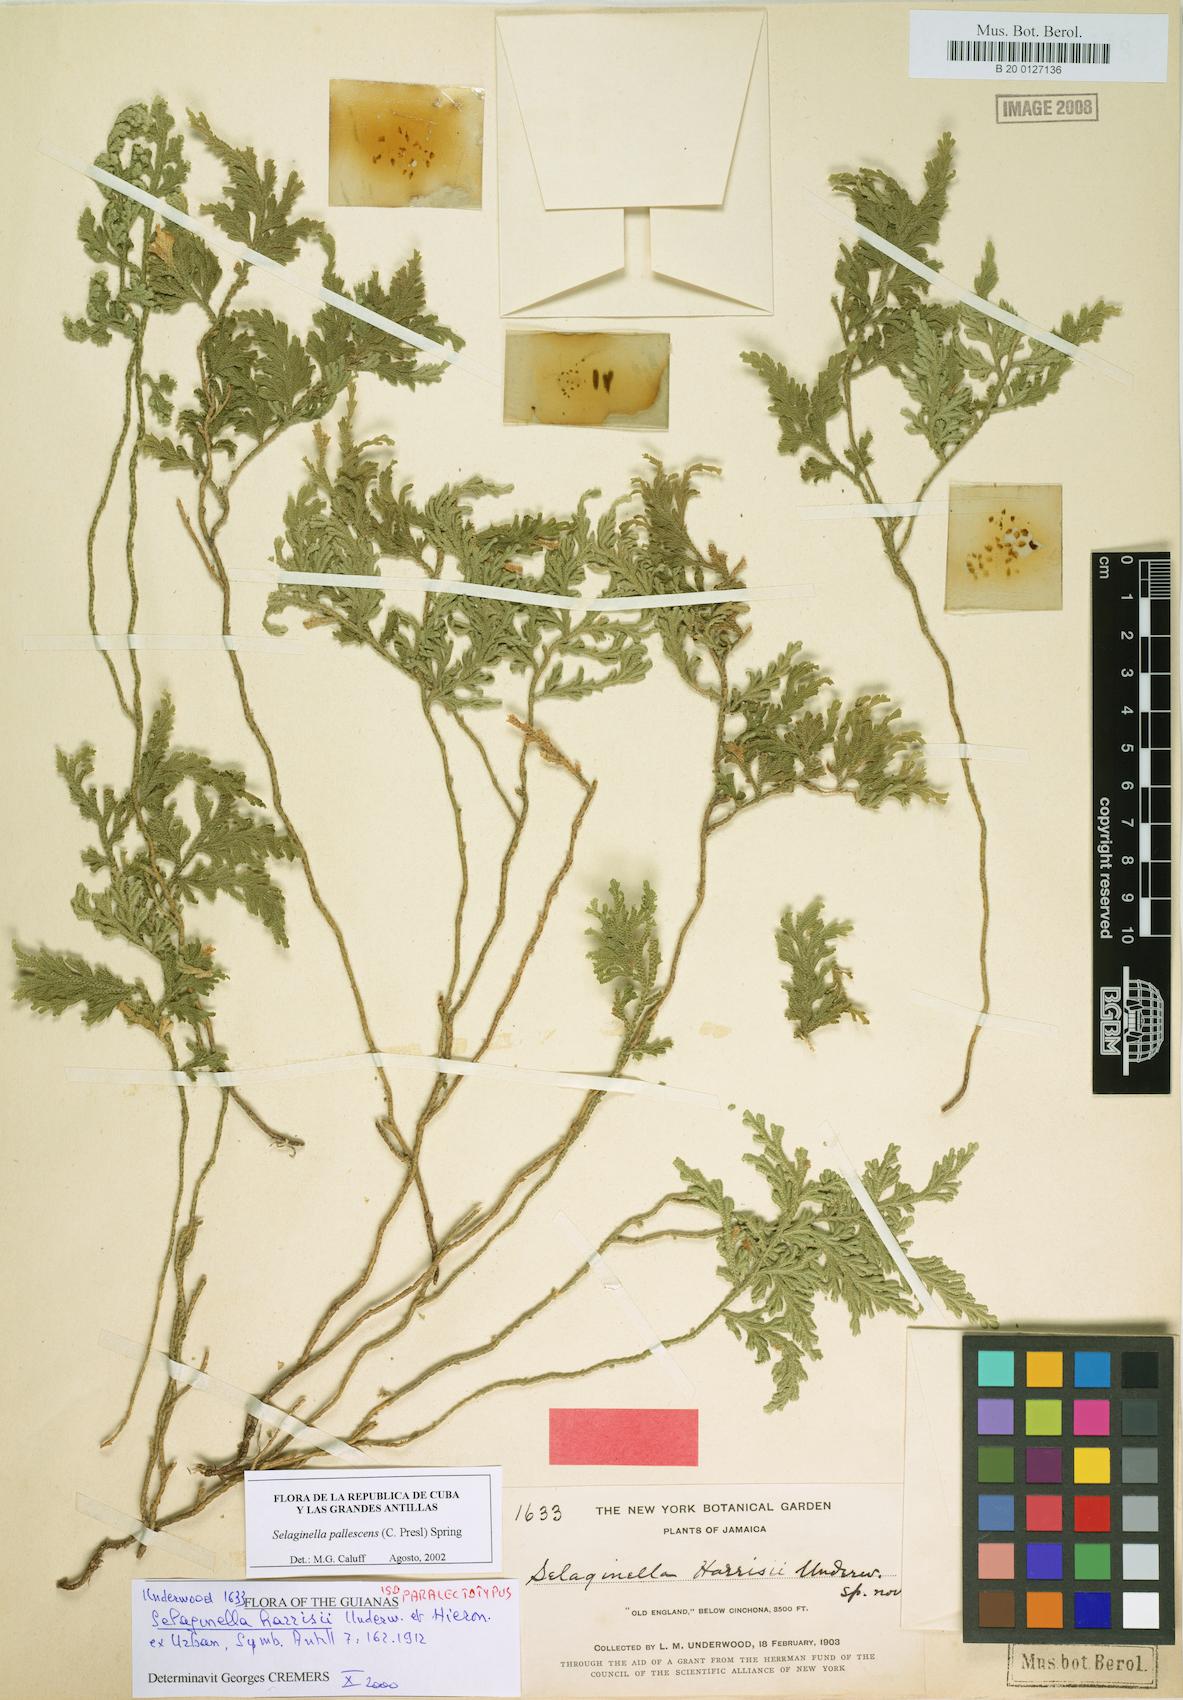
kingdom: Plantae
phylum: Tracheophyta
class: Lycopodiopsida
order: Selaginellales
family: Selaginellaceae
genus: Selaginella
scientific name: Selaginella harrisii
